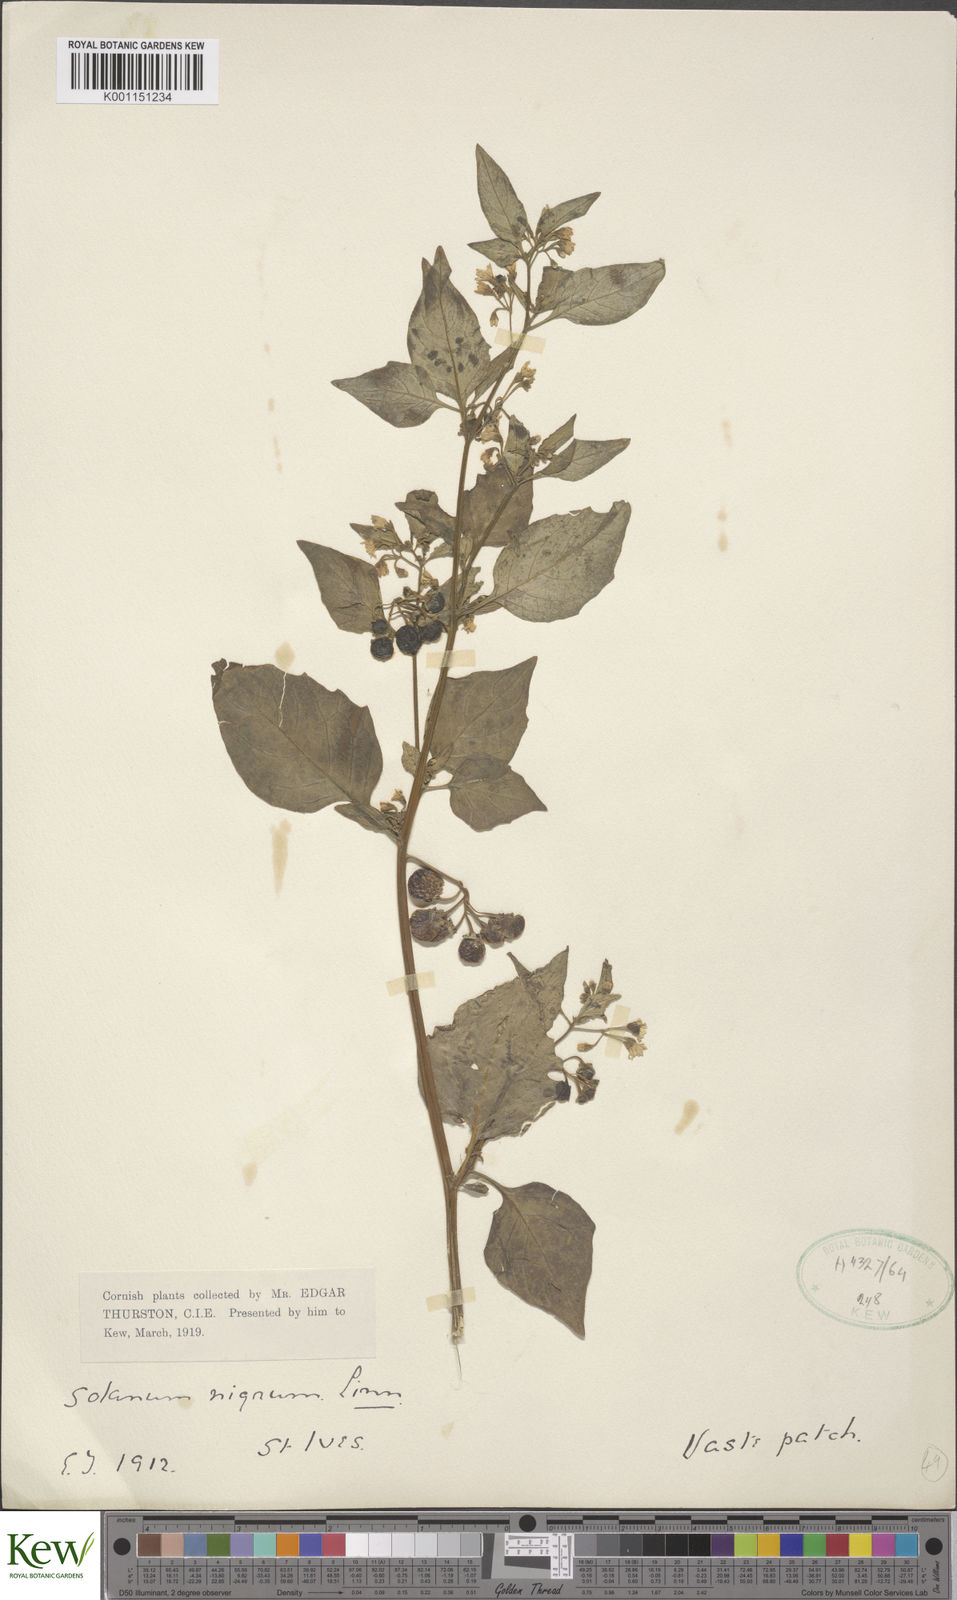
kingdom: Plantae
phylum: Tracheophyta
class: Magnoliopsida
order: Solanales
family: Solanaceae
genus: Solanum
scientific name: Solanum nigrum
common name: Black nightshade
